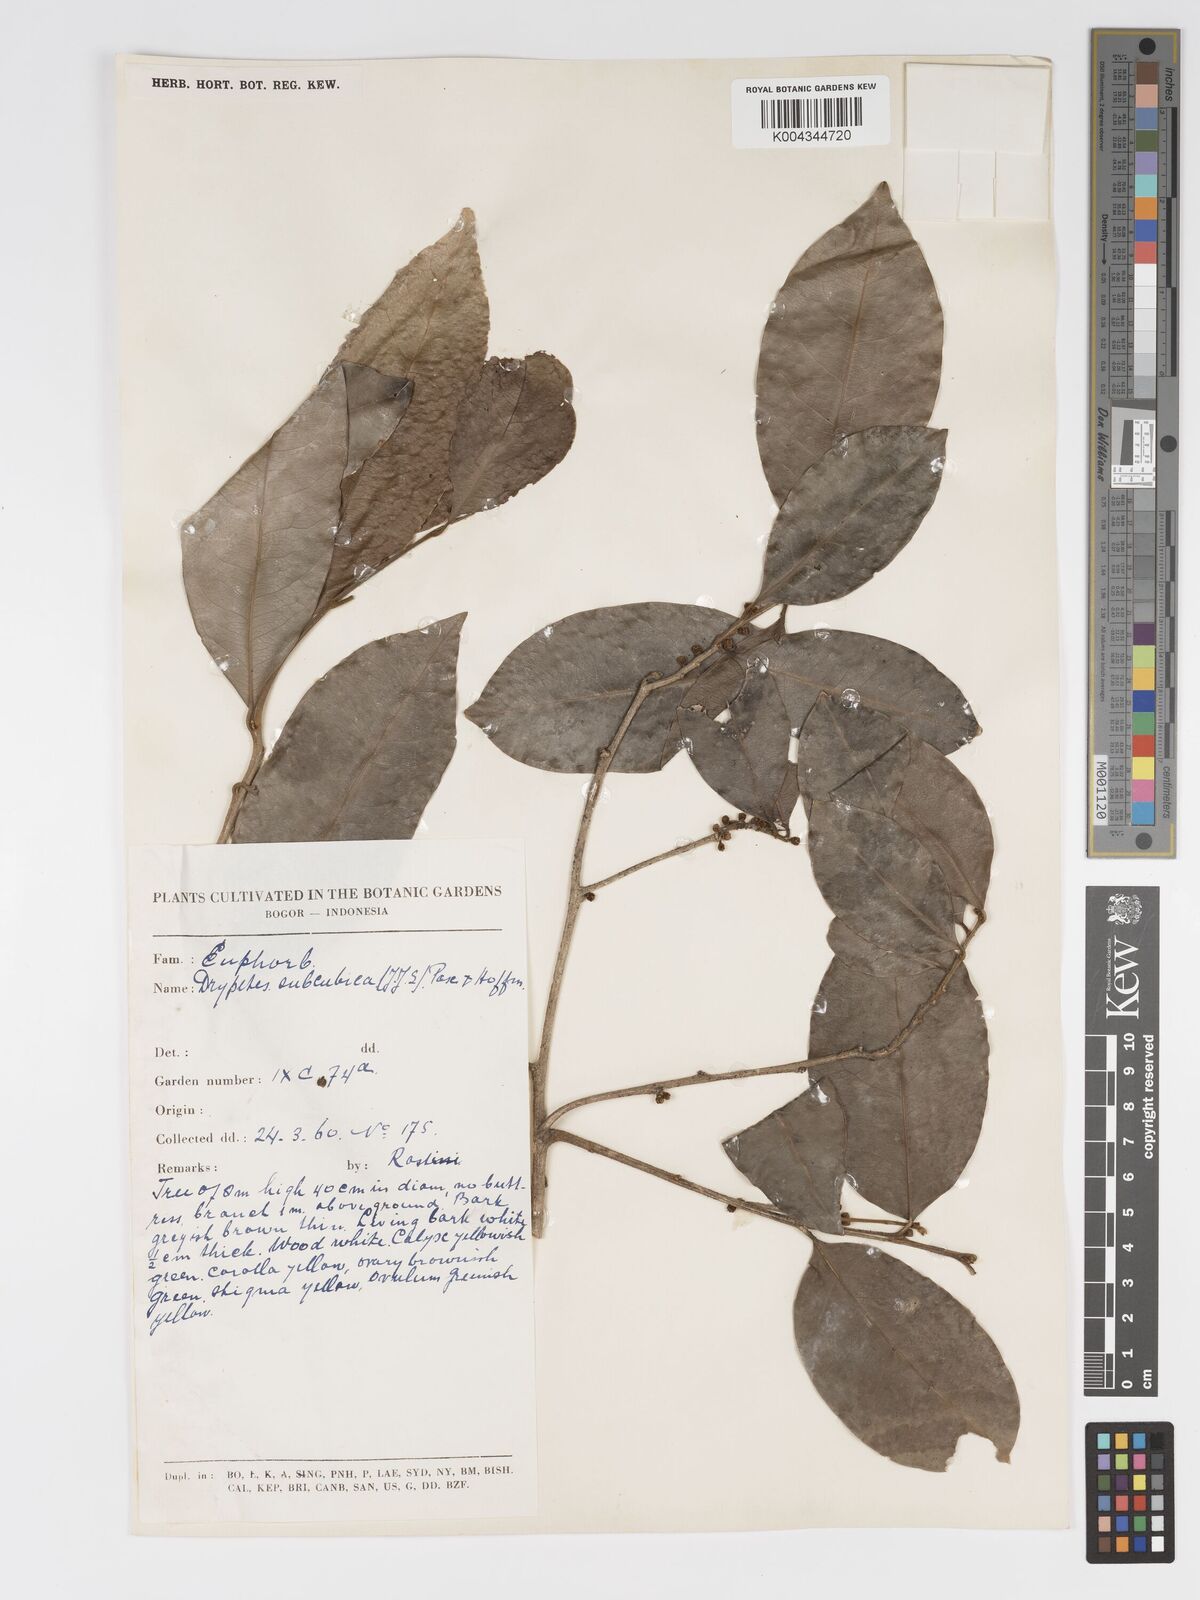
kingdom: Plantae
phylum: Tracheophyta
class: Magnoliopsida
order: Malpighiales
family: Putranjivaceae
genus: Drypetes
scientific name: Drypetes subcubica
